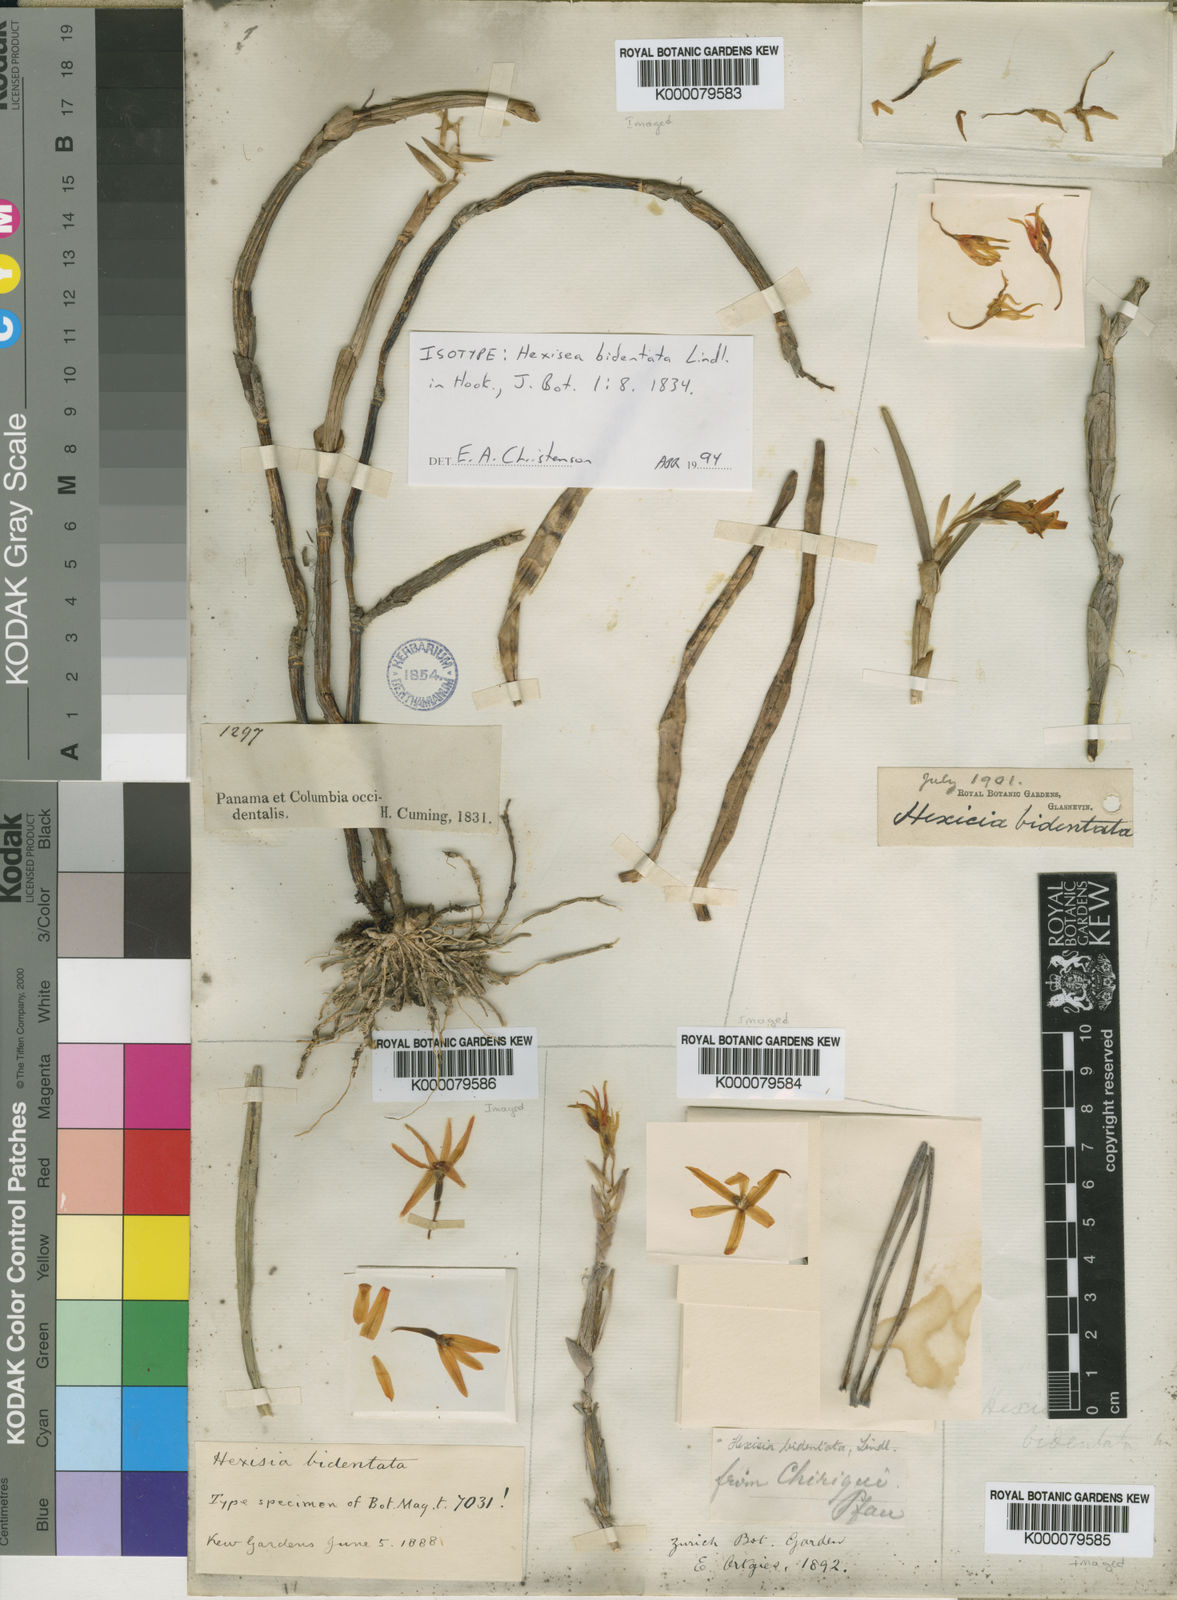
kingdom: Plantae
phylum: Tracheophyta
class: Liliopsida
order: Asparagales
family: Orchidaceae
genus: Scaphyglottis
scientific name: Scaphyglottis bidentata
